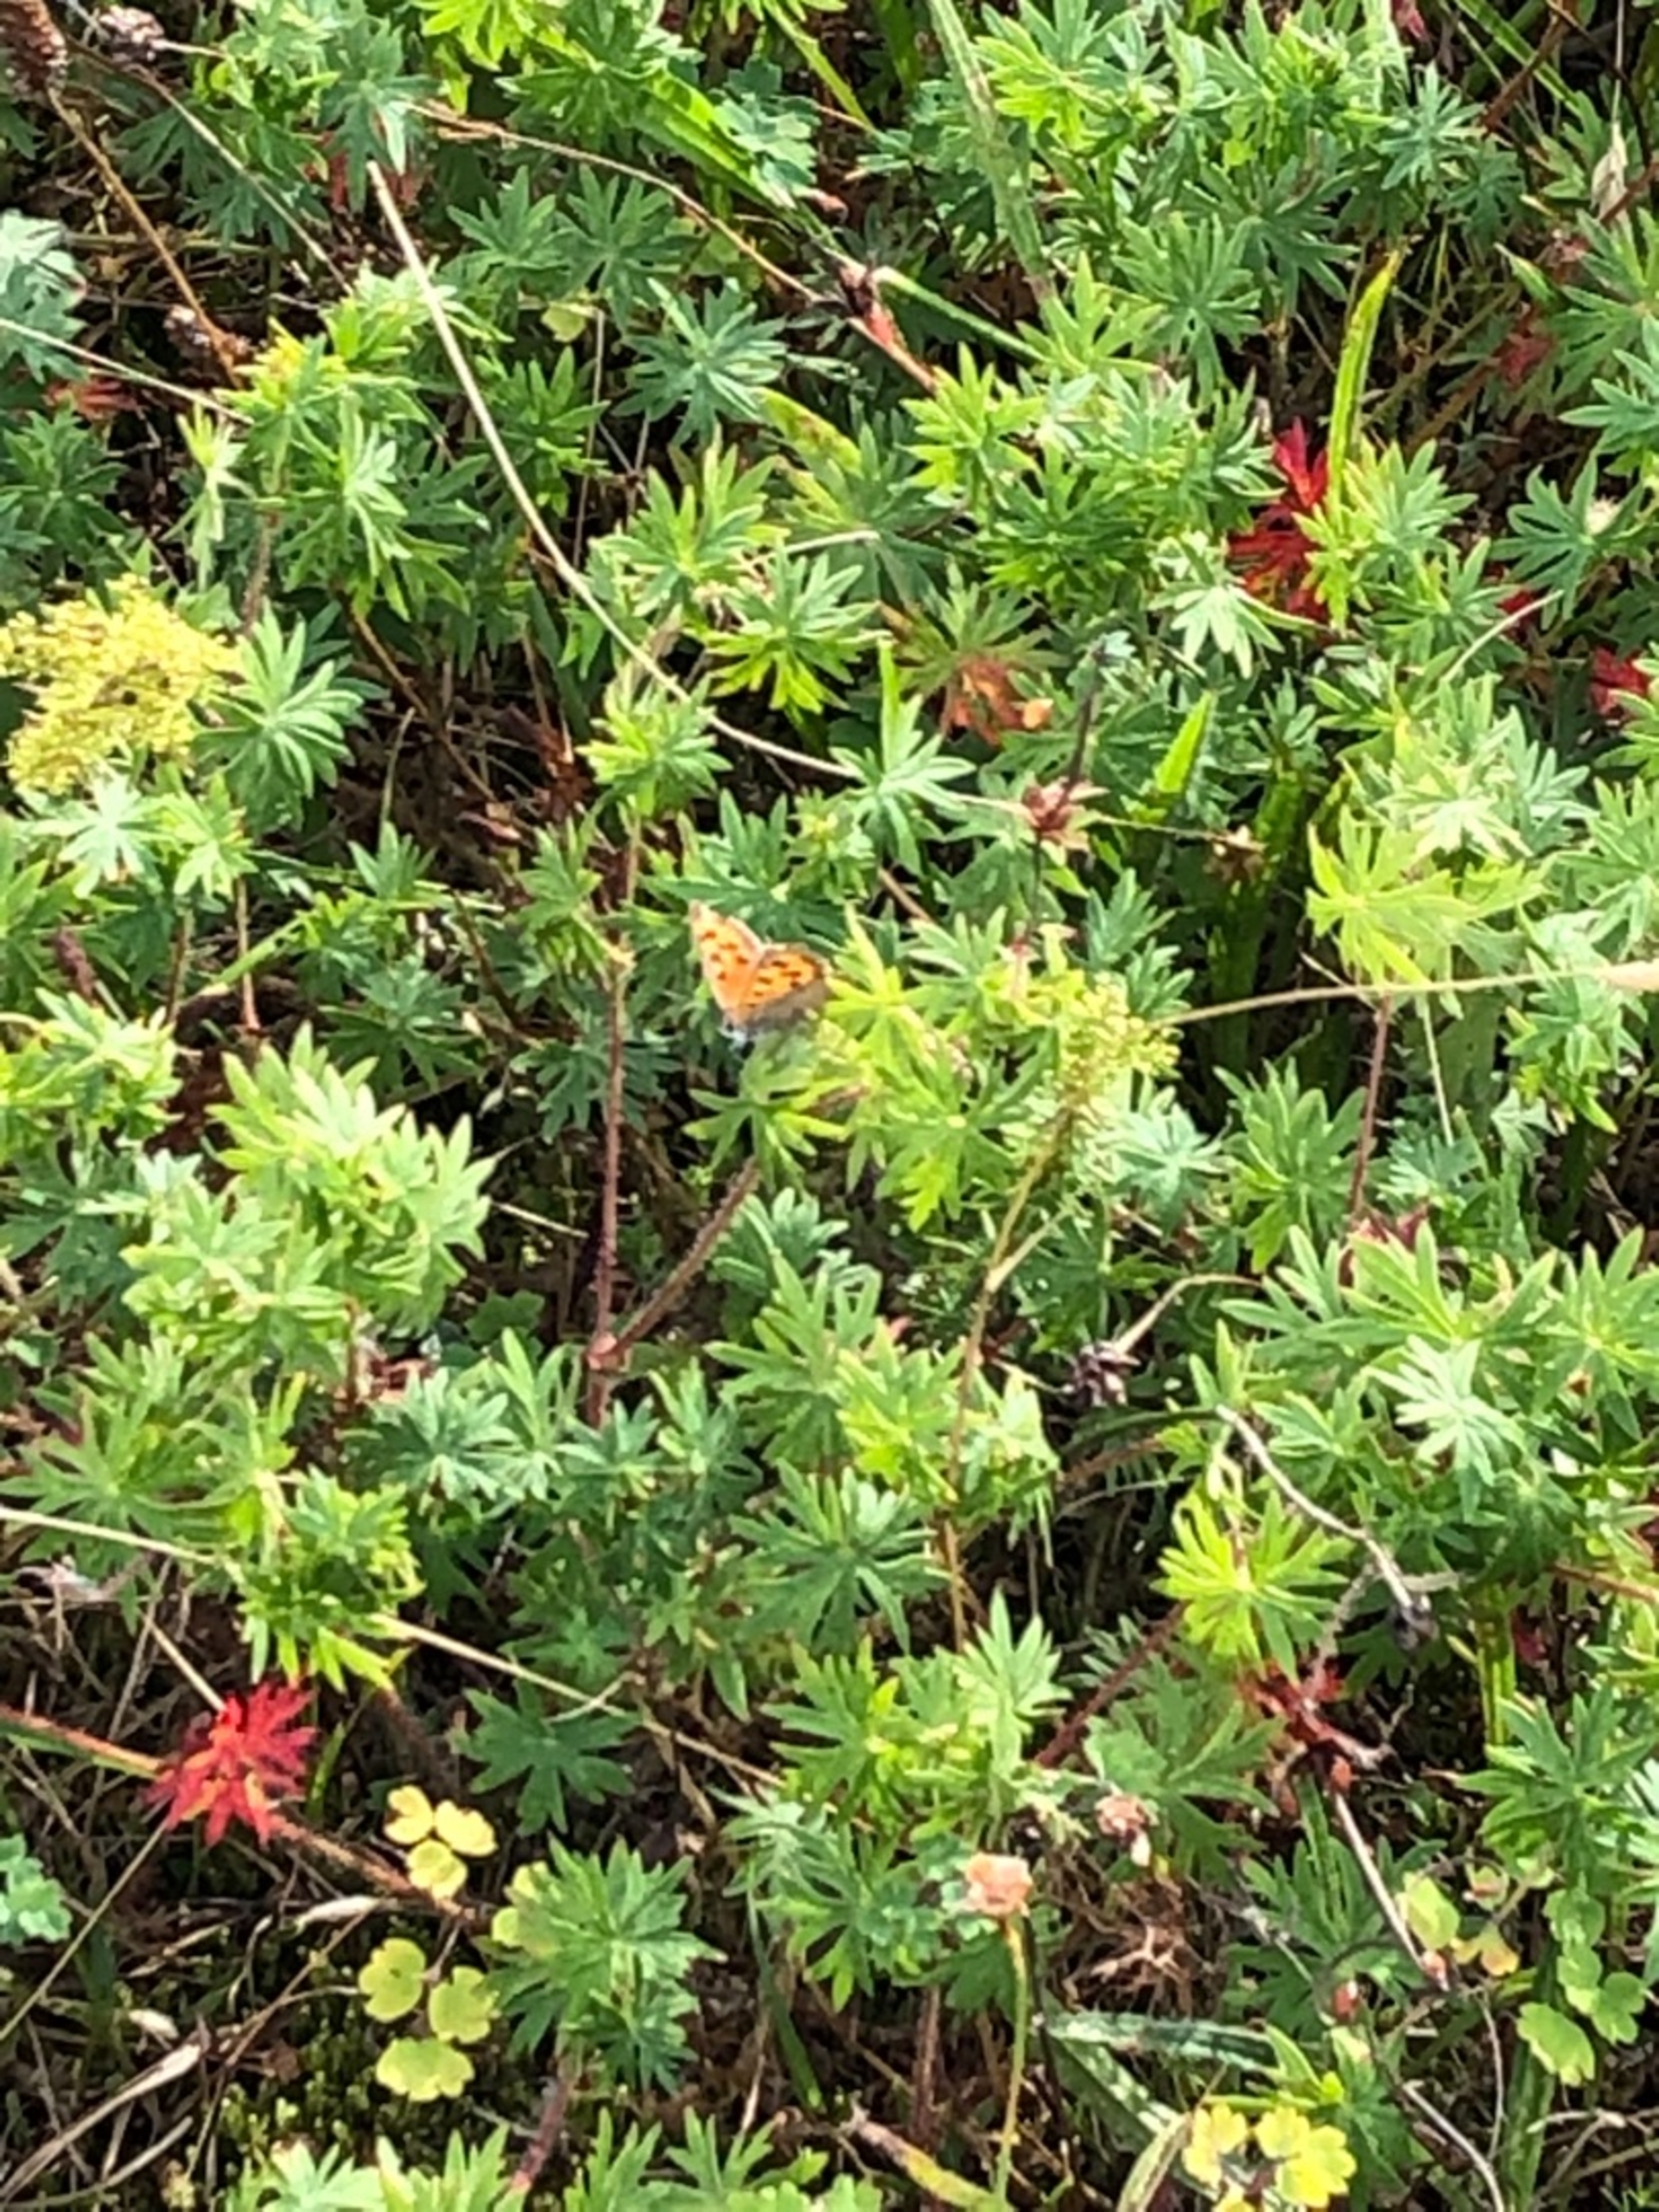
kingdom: Animalia
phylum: Arthropoda
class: Insecta
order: Lepidoptera
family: Lycaenidae
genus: Lycaena
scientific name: Lycaena phlaeas
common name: Lille ildfugl
